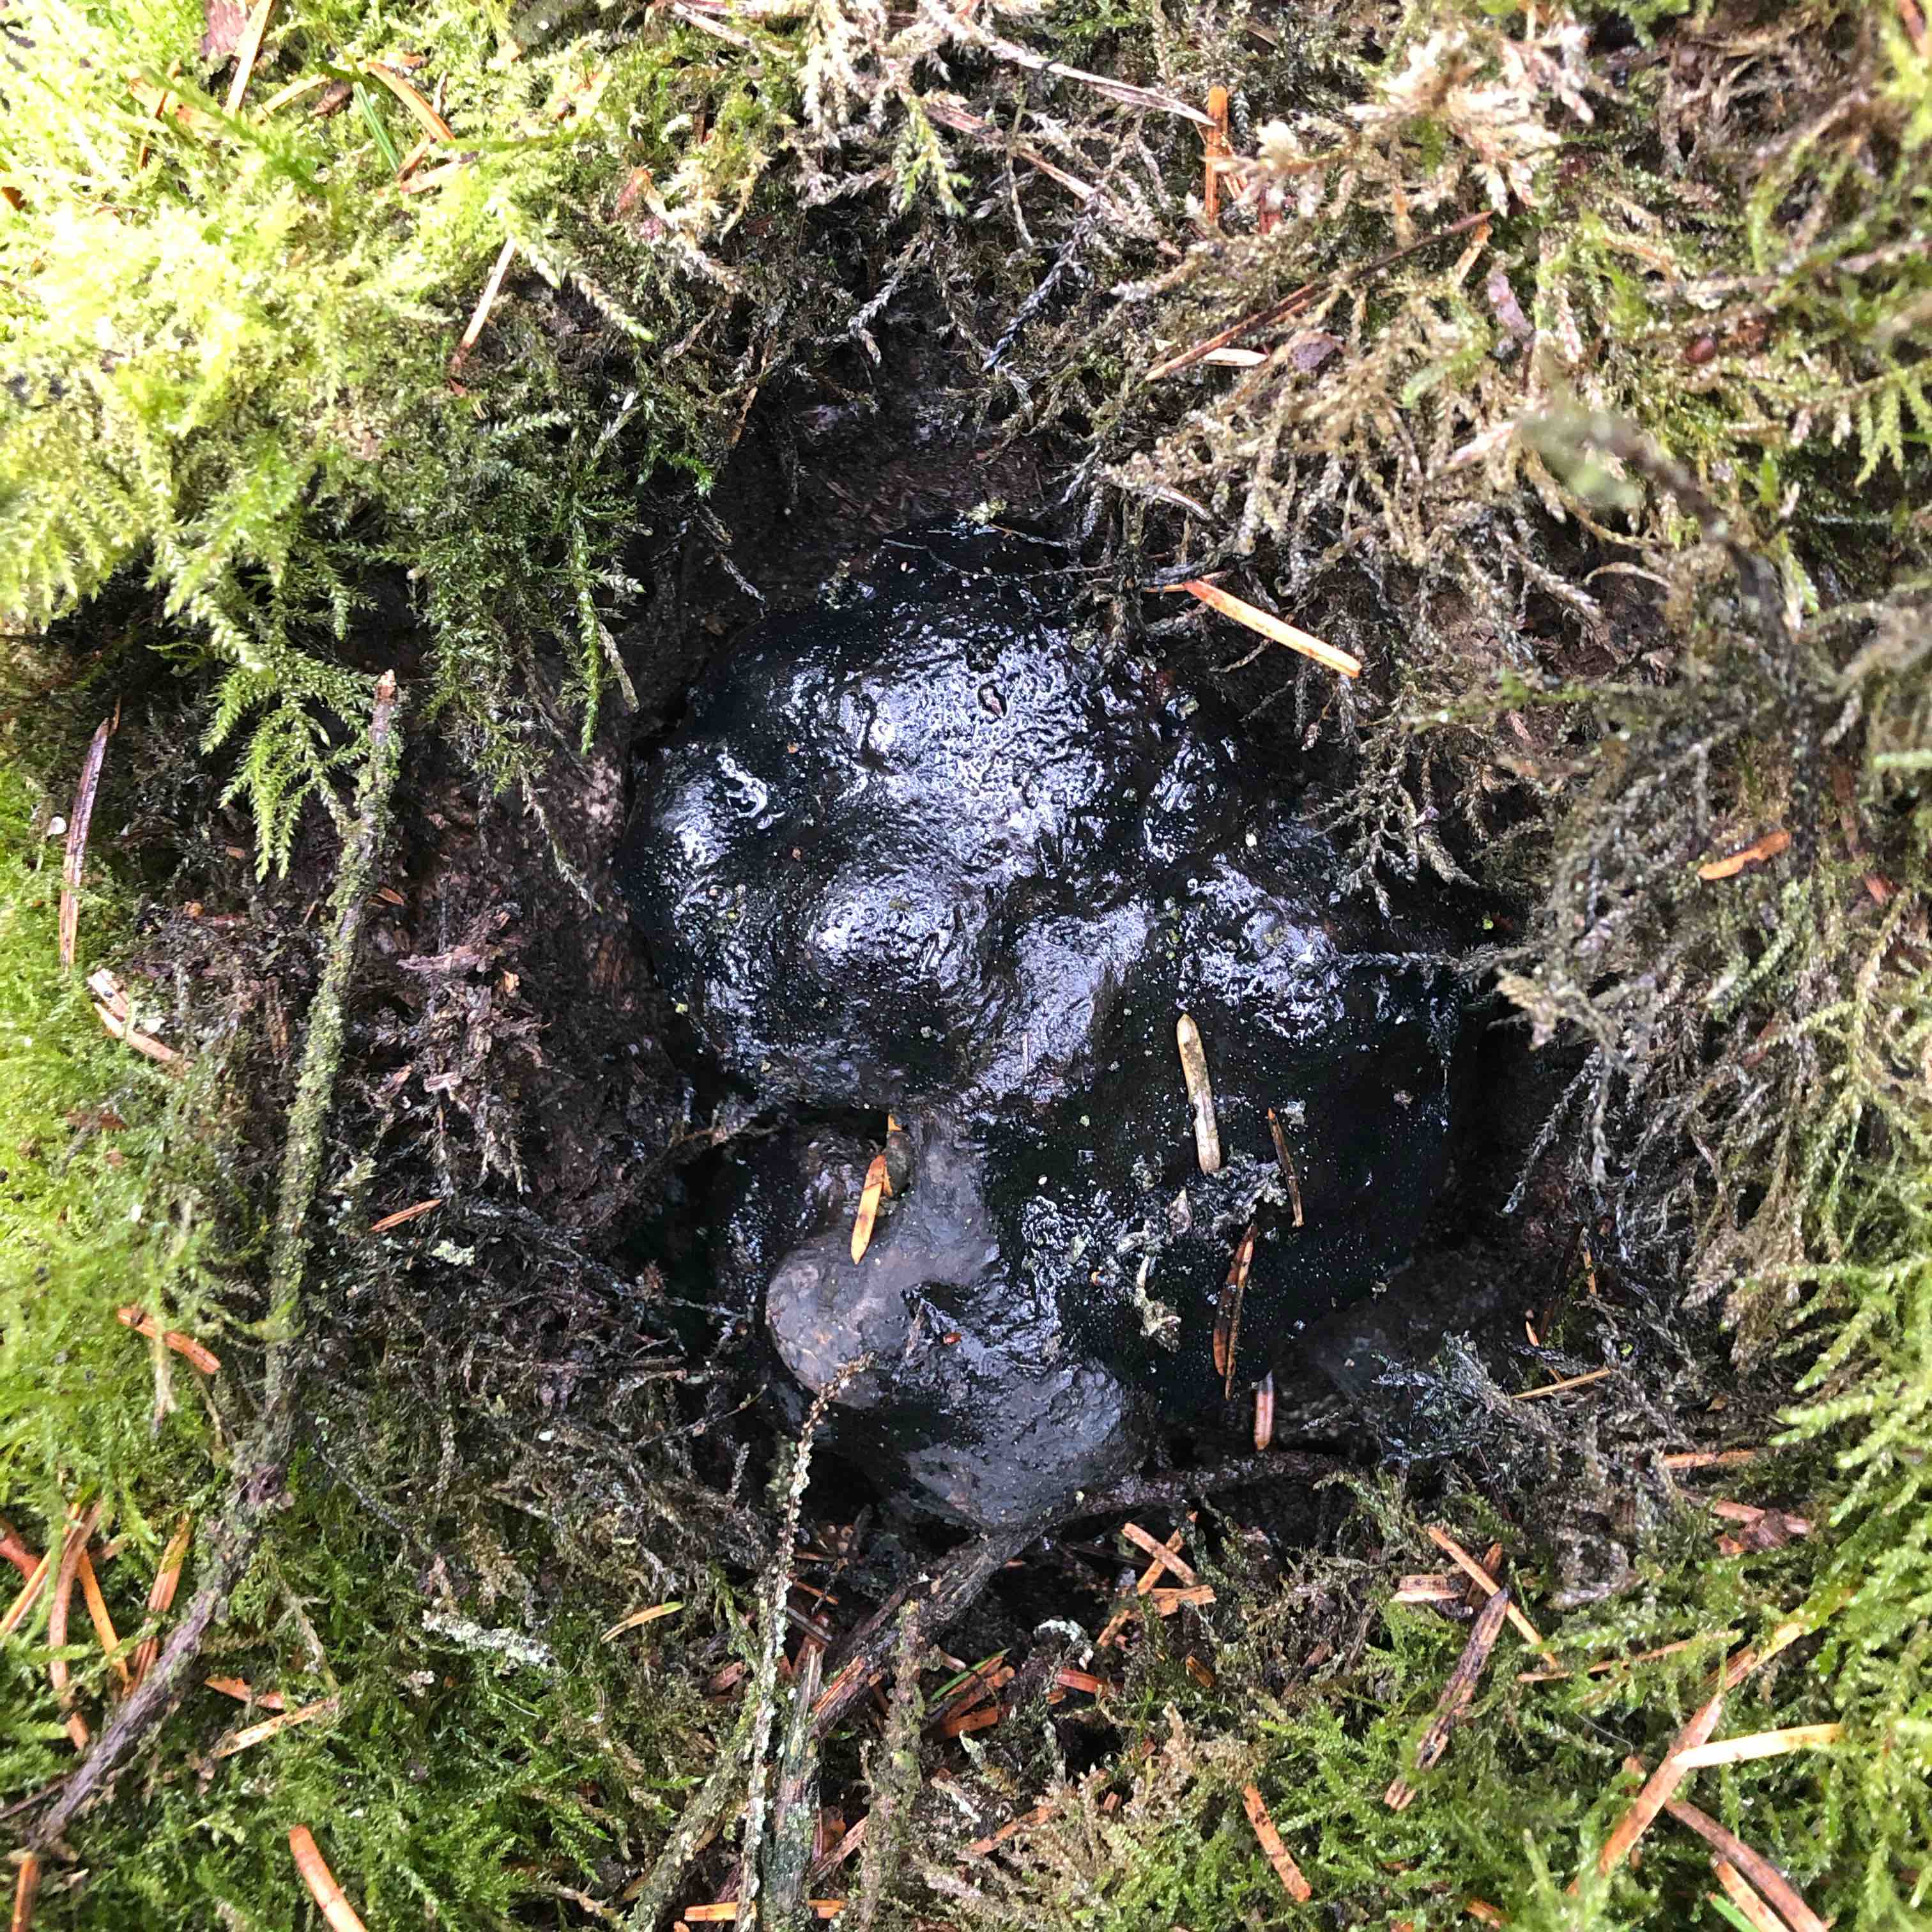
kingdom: Fungi
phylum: Ascomycota
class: Sordariomycetes
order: Boliniales
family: Boliniaceae
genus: Camarops
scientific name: Camarops tubulina
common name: knudret kulsnegl
